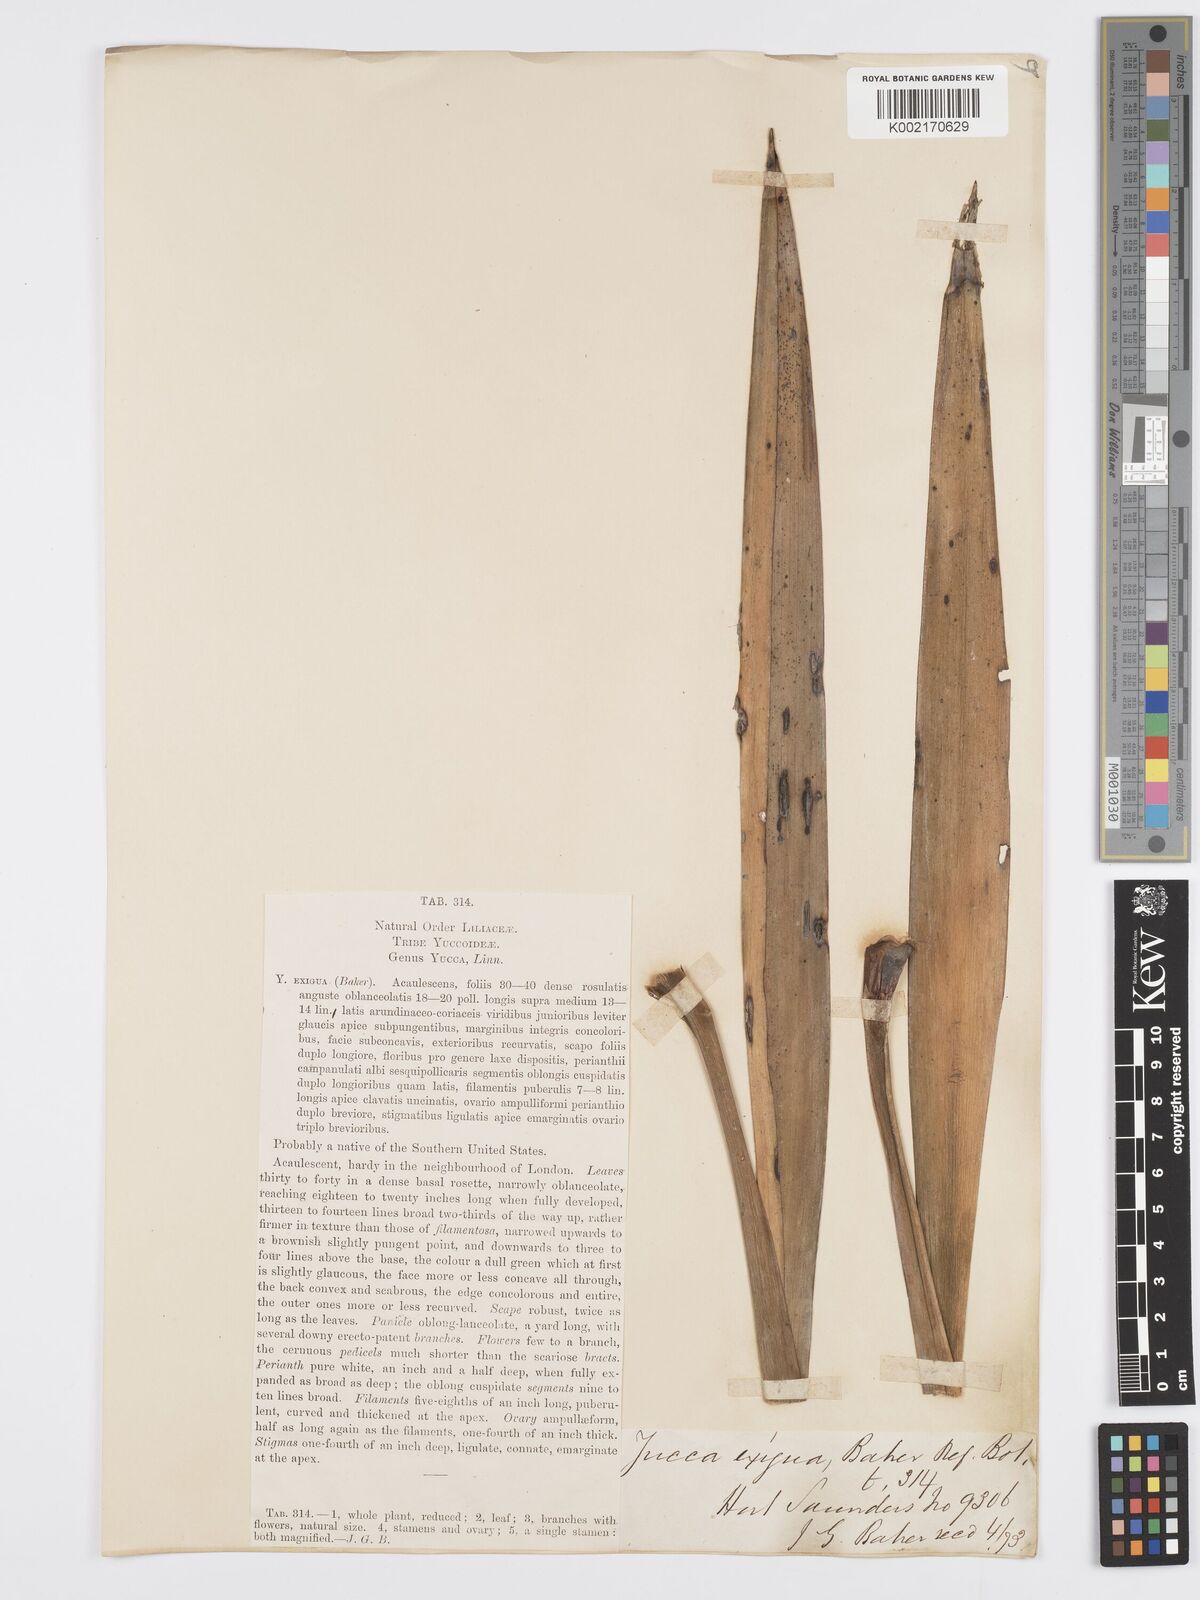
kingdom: Plantae
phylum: Tracheophyta
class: Liliopsida
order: Asparagales
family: Asparagaceae
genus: Yucca
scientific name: Yucca flaccida
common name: Adam's-needle
